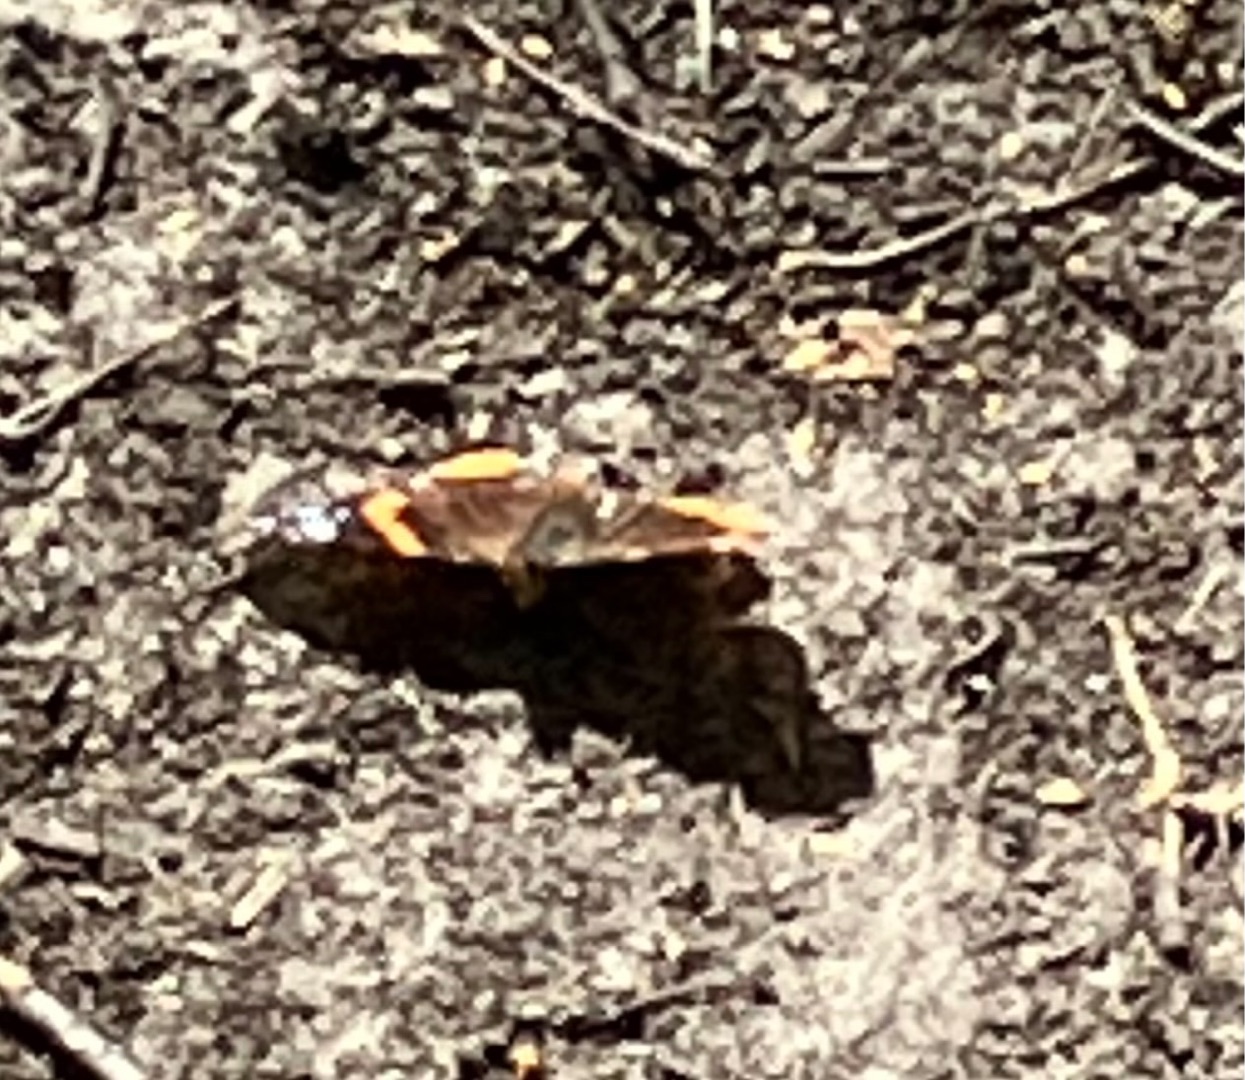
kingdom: Animalia
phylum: Arthropoda
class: Insecta
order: Lepidoptera
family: Nymphalidae
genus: Vanessa
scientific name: Vanessa atalanta
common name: Admiral
